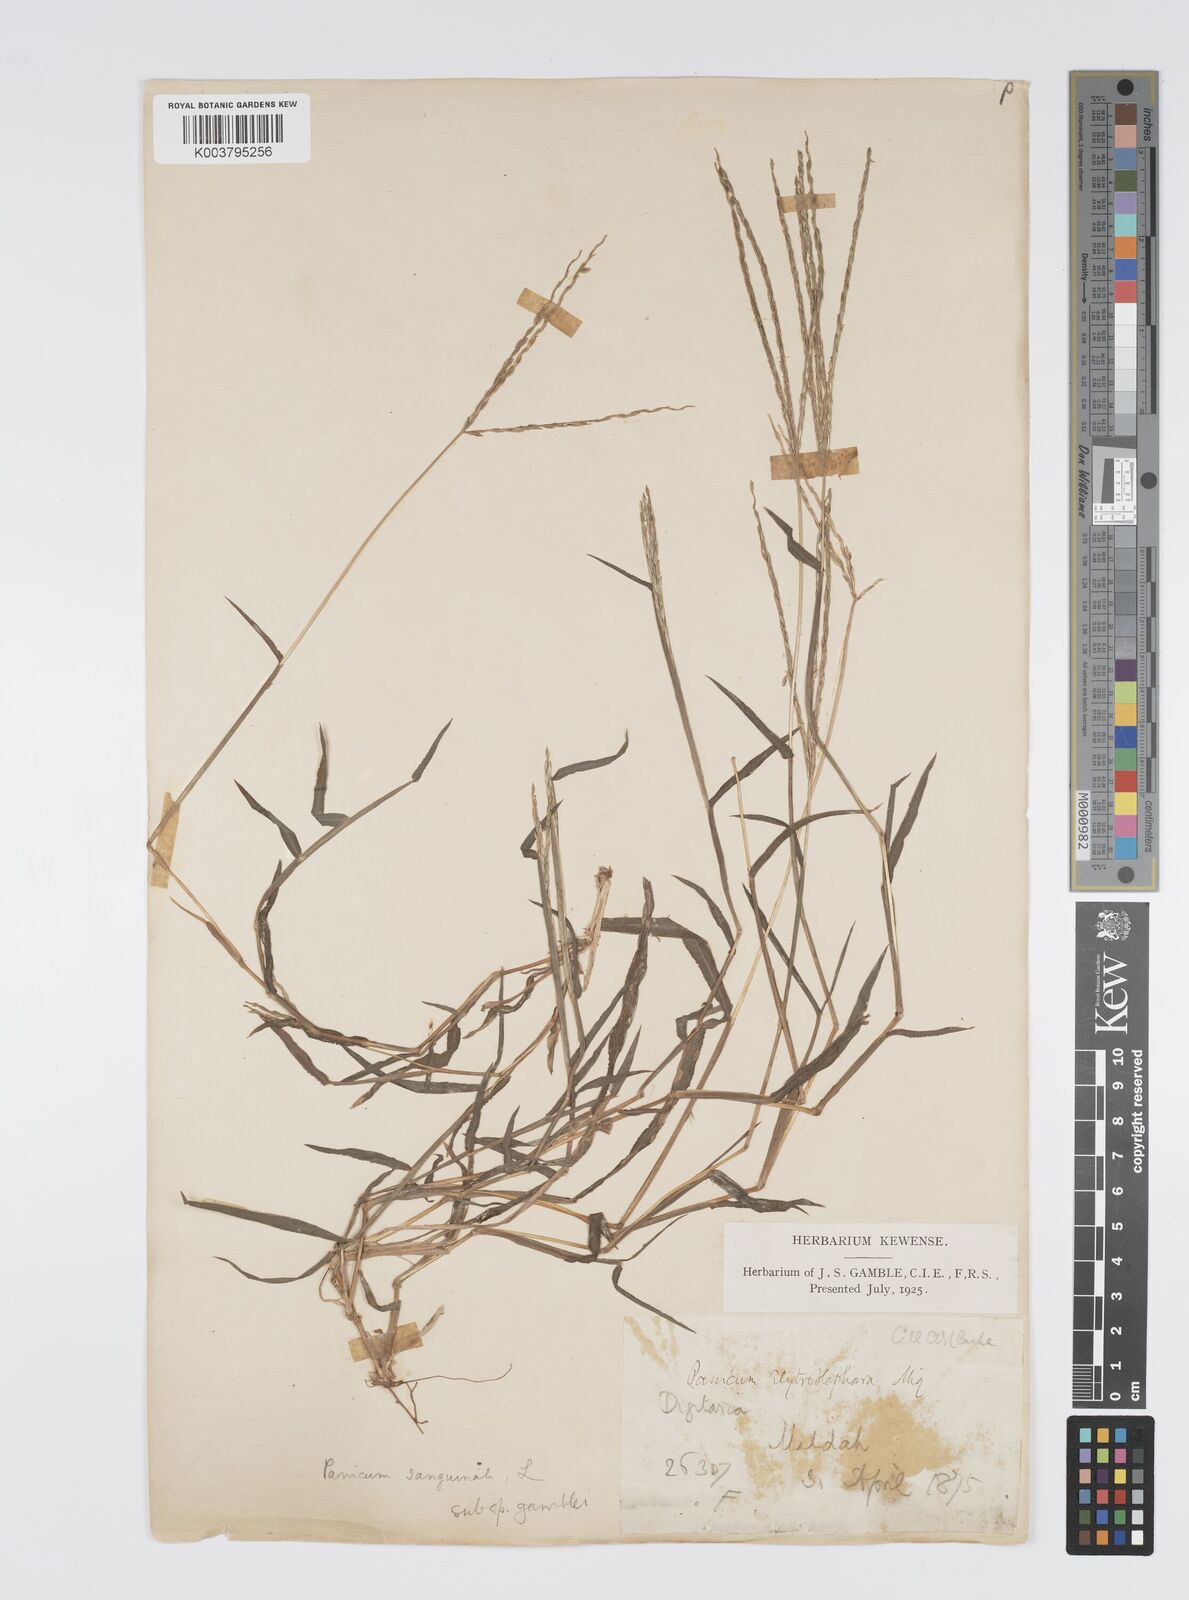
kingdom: Plantae
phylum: Tracheophyta
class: Liliopsida
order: Poales
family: Poaceae
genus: Digitaria
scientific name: Digitaria ciliaris
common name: Tropical finger-grass
